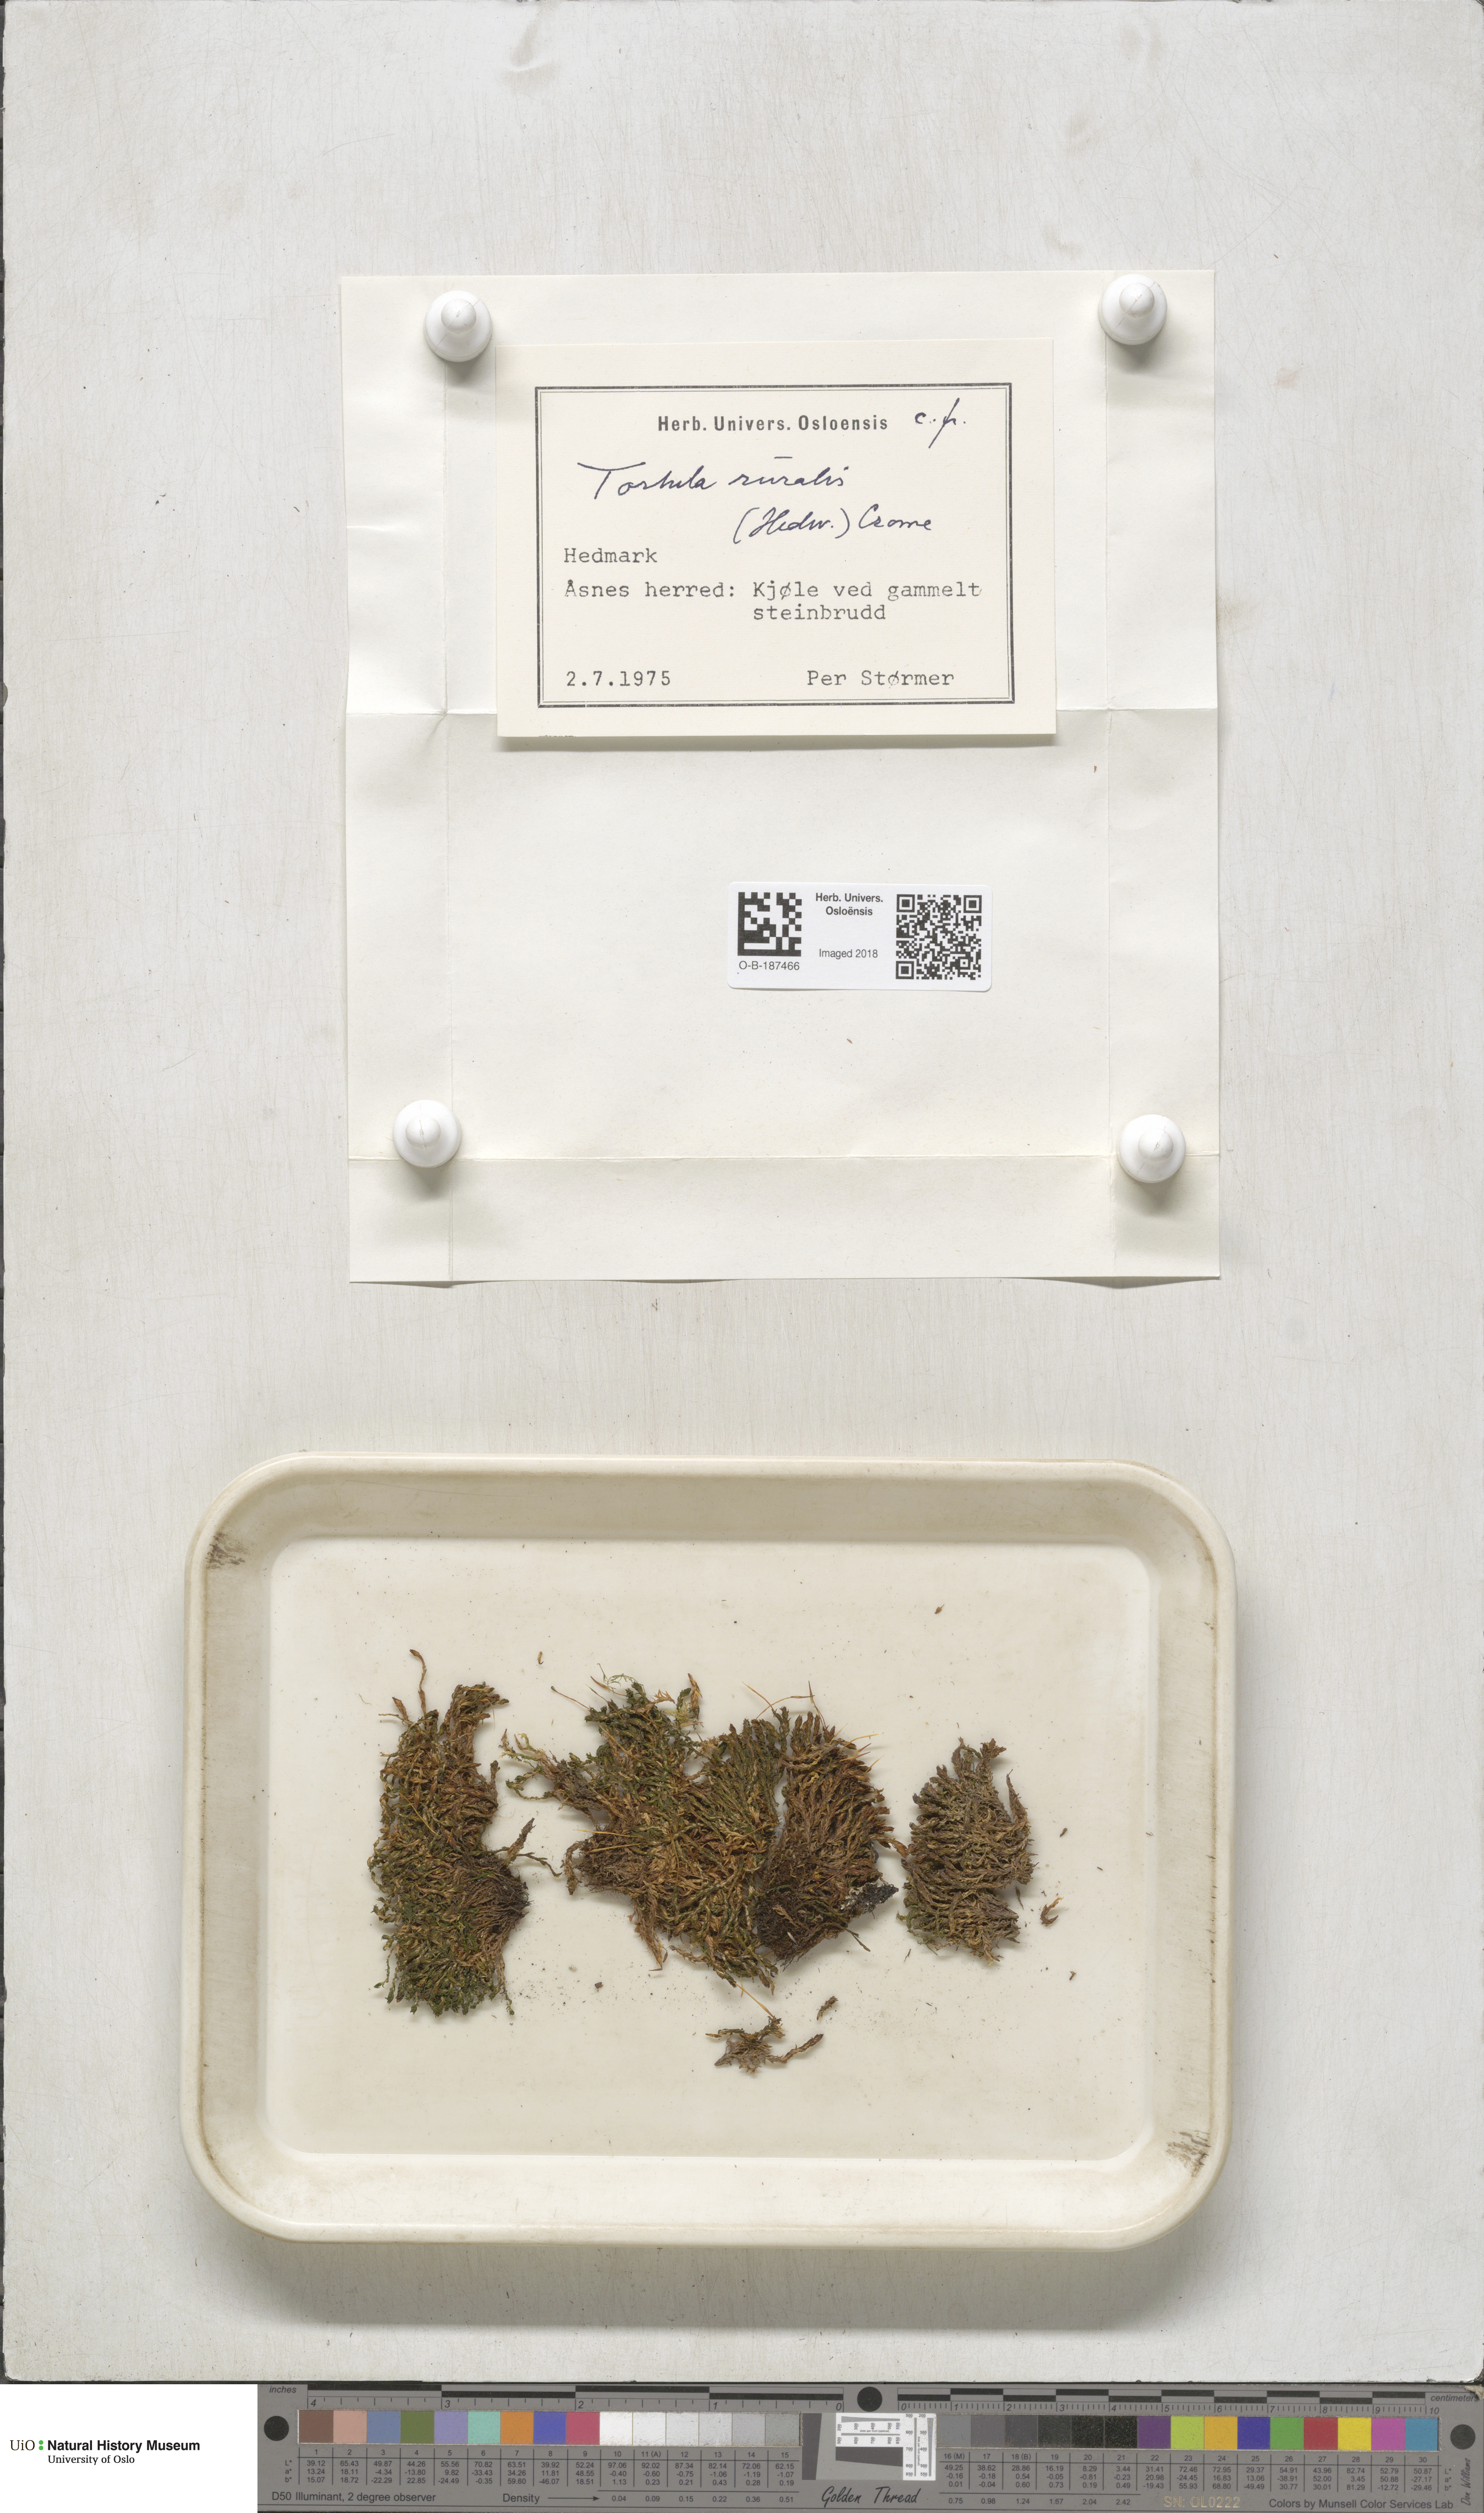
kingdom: Plantae
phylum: Bryophyta
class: Bryopsida
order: Pottiales
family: Pottiaceae
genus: Syntrichia
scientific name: Syntrichia ruralis
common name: Sidewalk screw moss
